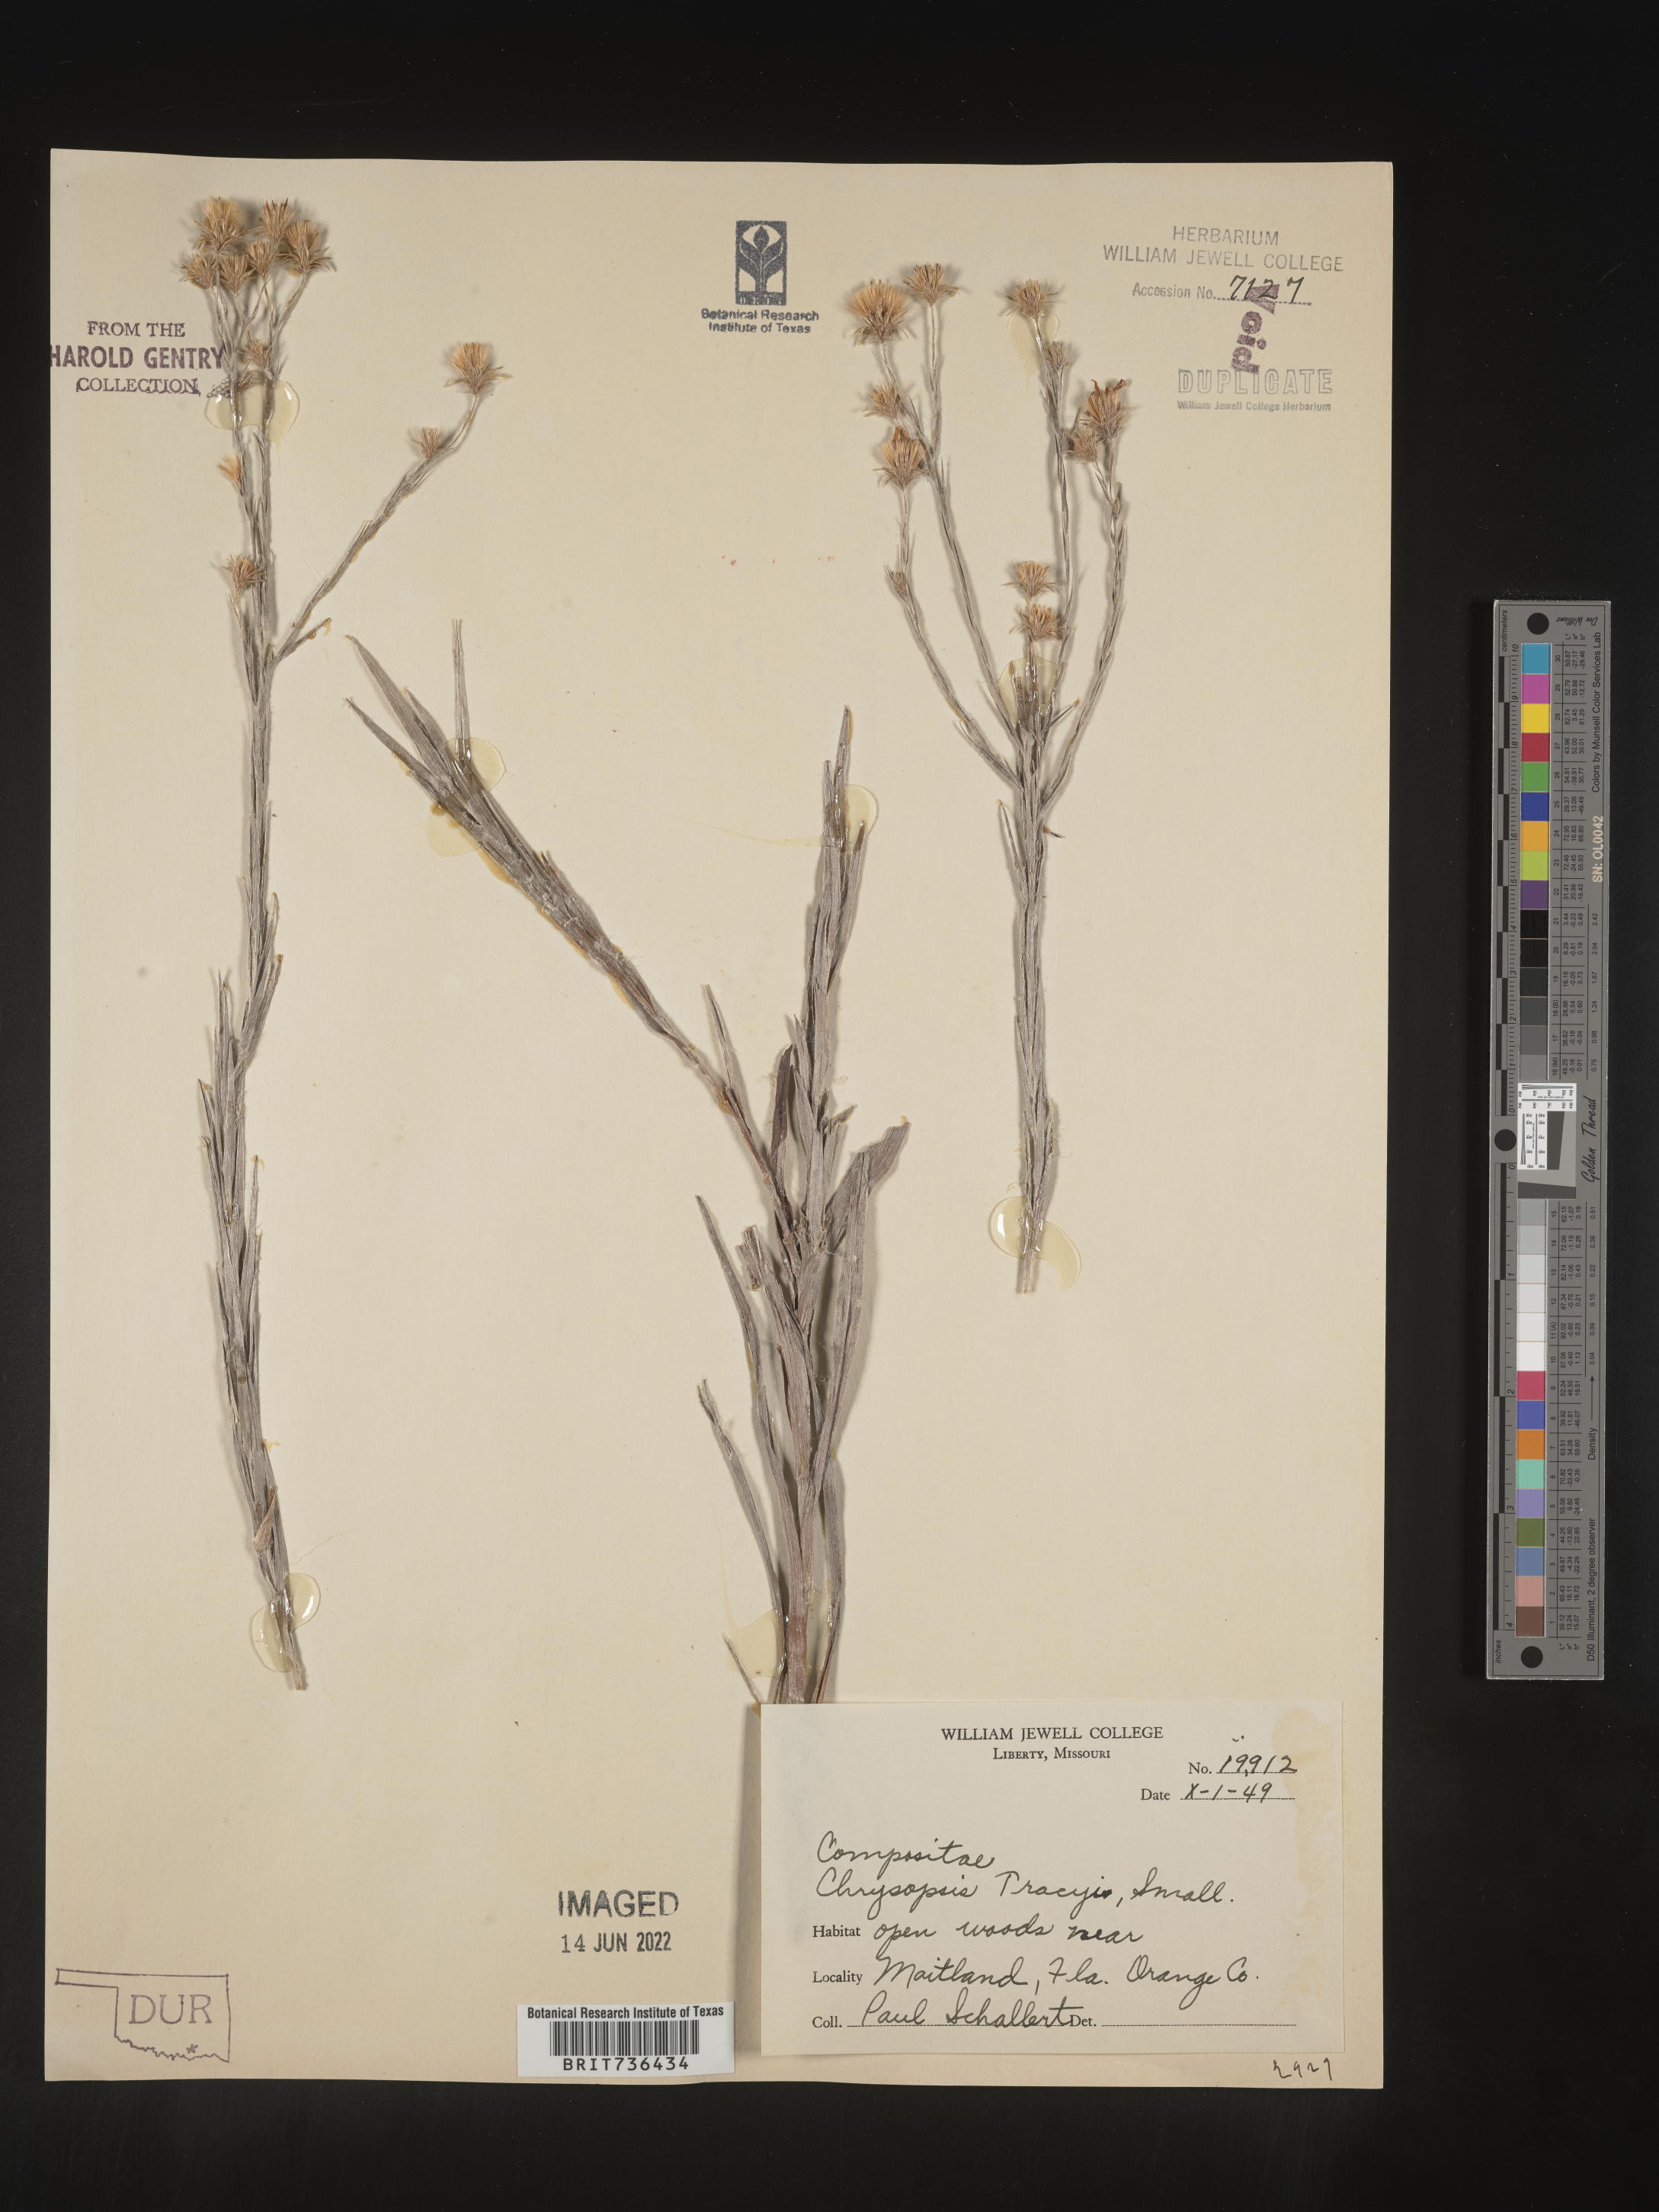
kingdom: Plantae
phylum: Tracheophyta
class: Magnoliopsida
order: Asterales
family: Asteraceae
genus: Pityopsis
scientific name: Pityopsis tracyi
